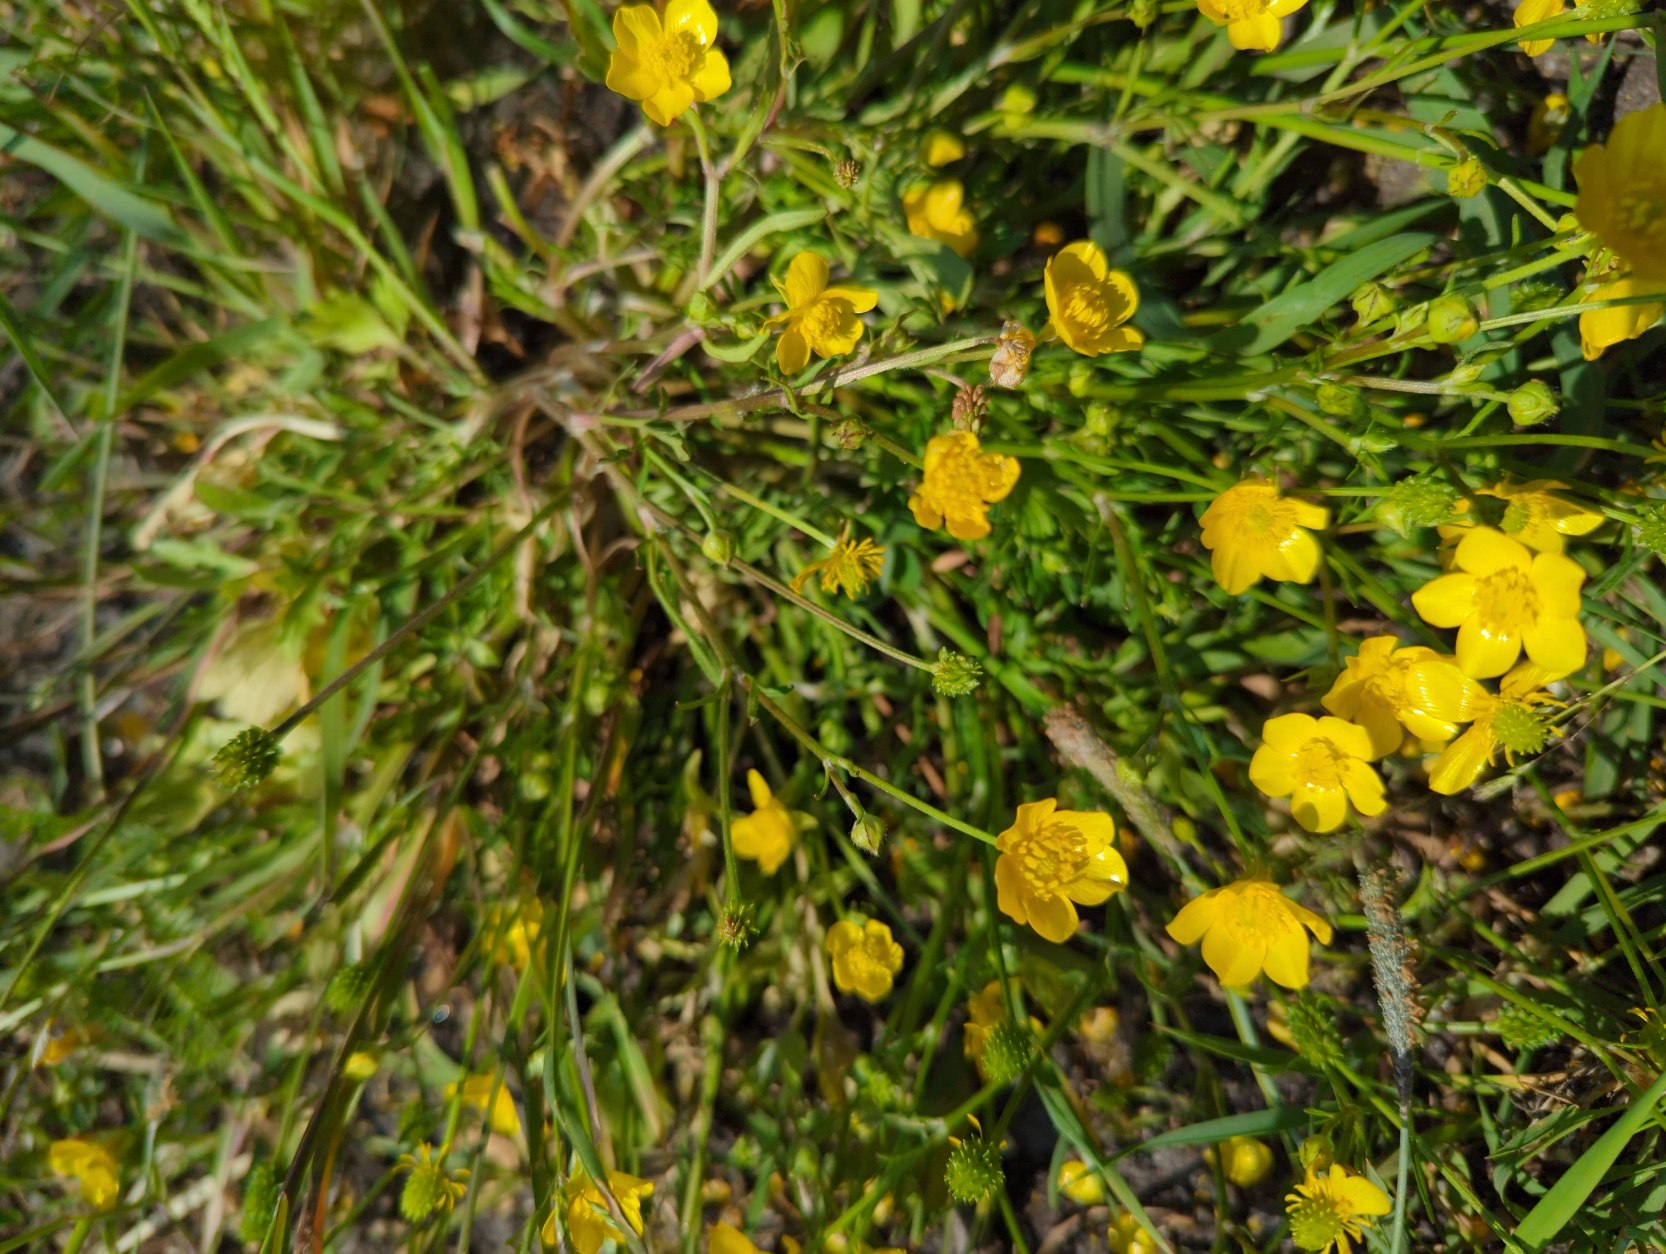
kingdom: Plantae
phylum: Tracheophyta
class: Magnoliopsida
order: Ranunculales
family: Ranunculaceae
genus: Ranunculus
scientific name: Ranunculus bulbosus
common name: Knold-ranunkel
